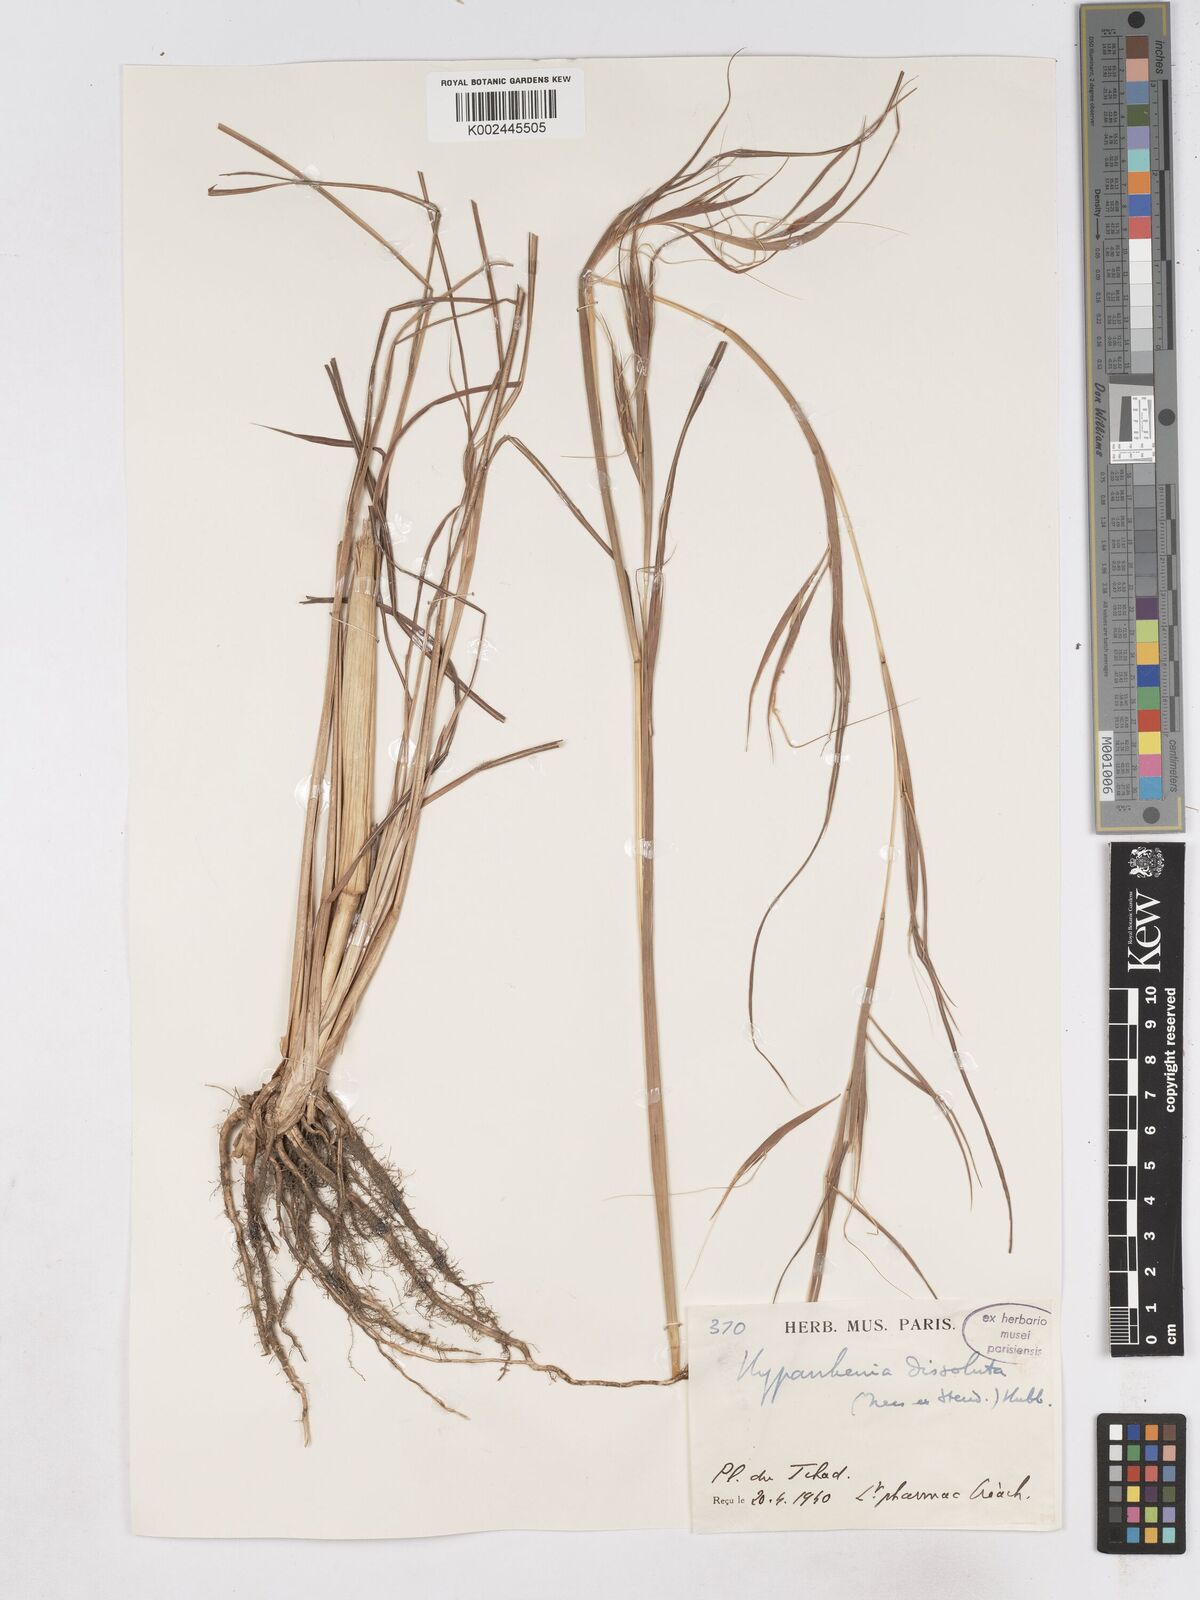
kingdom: Plantae
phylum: Tracheophyta
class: Liliopsida
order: Poales
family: Poaceae
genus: Hyperthelia
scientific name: Hyperthelia dissoluta
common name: Yellow thatching grass
